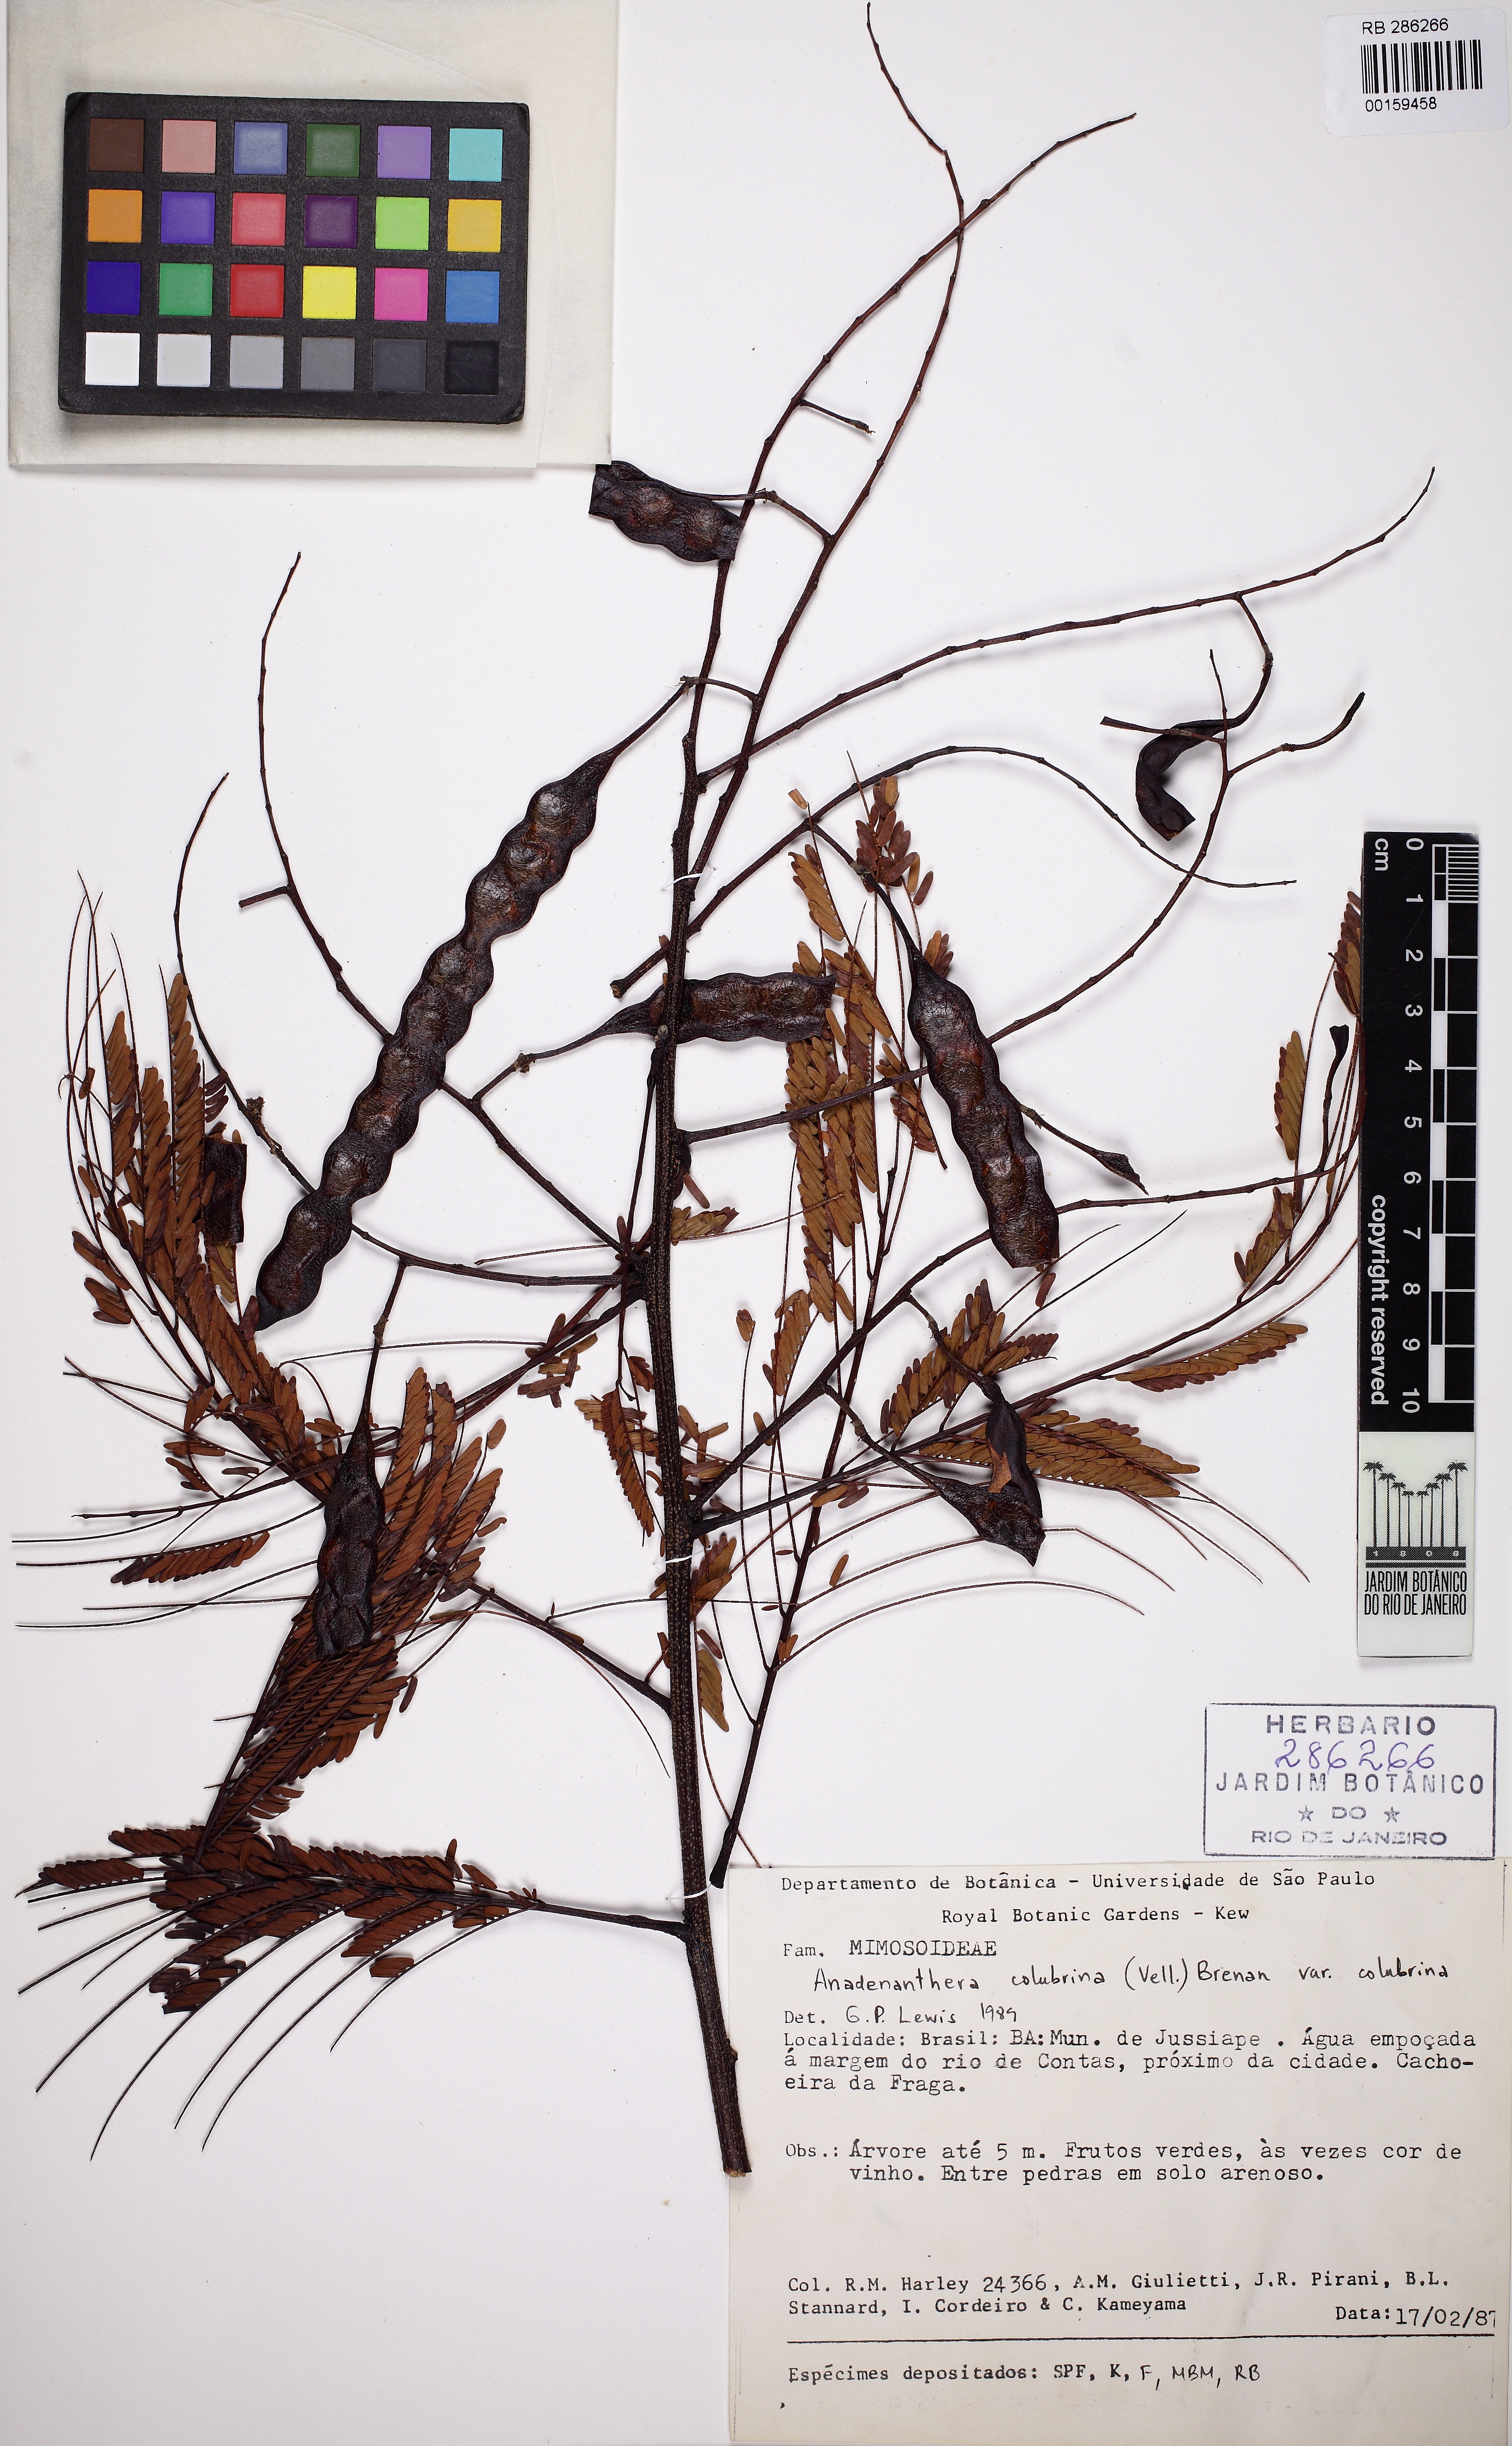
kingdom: Plantae
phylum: Tracheophyta
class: Magnoliopsida
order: Fabales
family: Fabaceae
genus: Anadenanthera
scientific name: Anadenanthera colubrina
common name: Curupay
